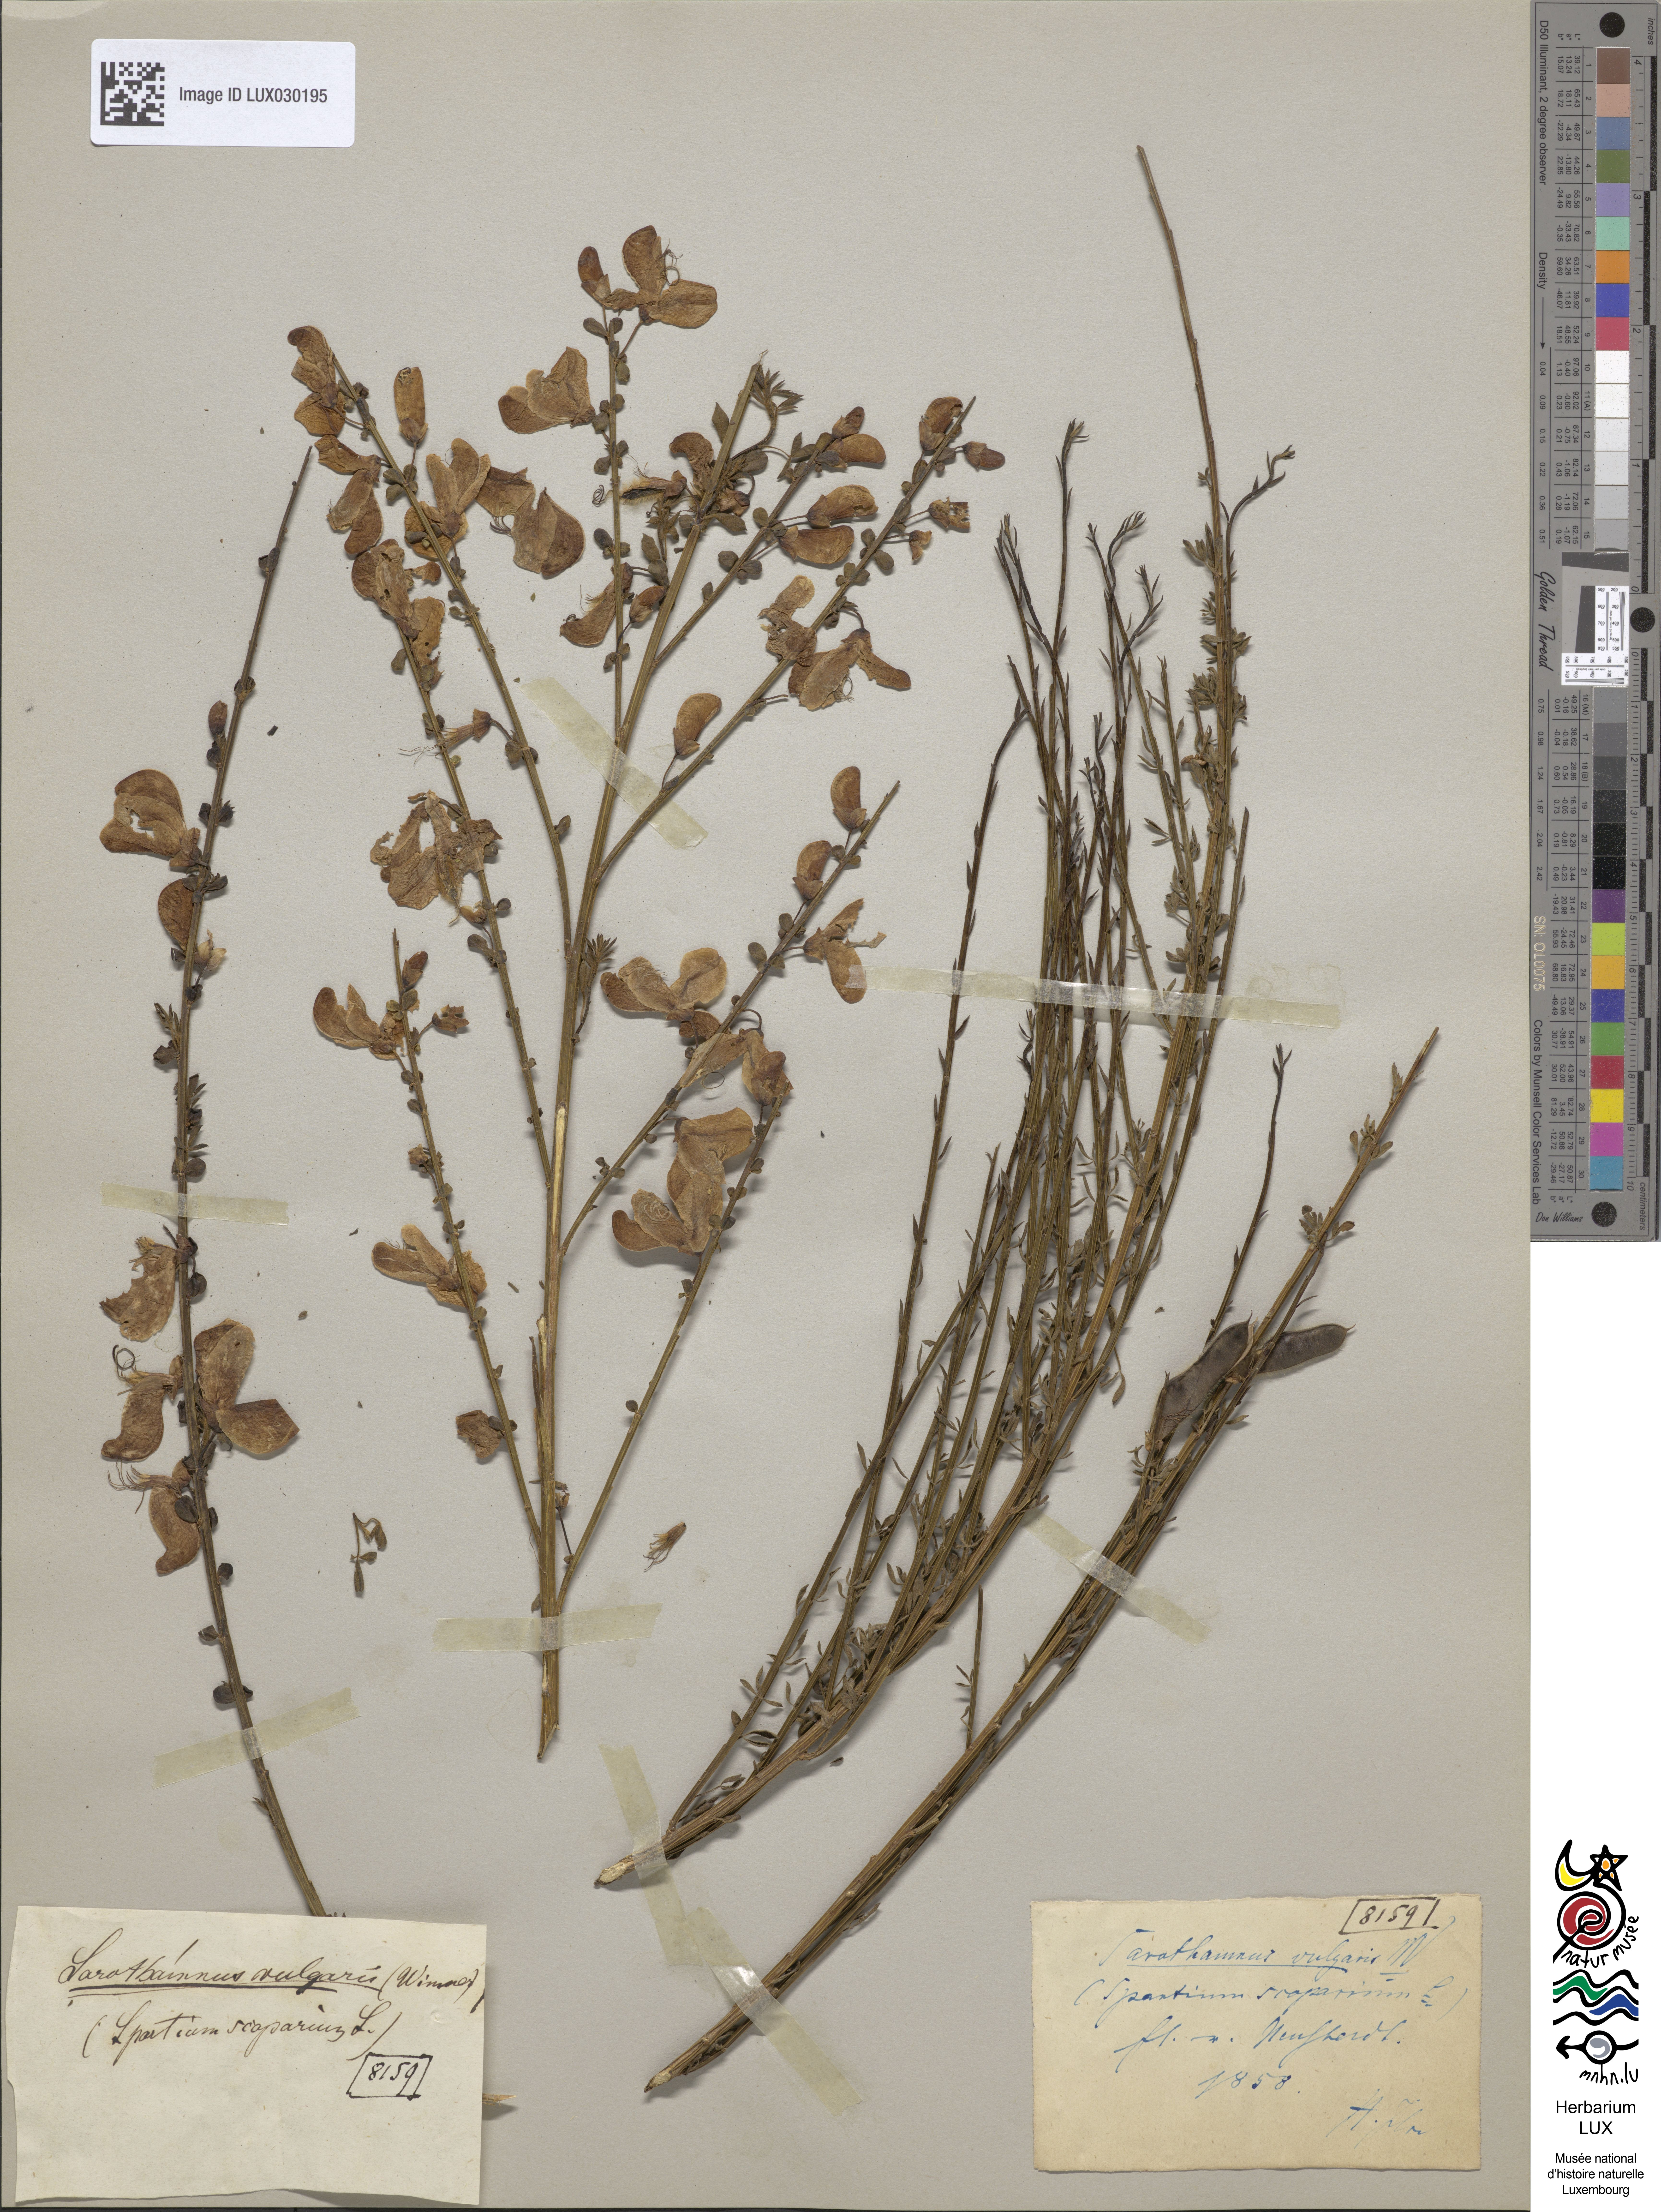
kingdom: Plantae
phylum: Tracheophyta
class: Magnoliopsida
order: Fabales
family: Fabaceae
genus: Cytisus
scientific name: Cytisus scoparius
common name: Scotch broom
